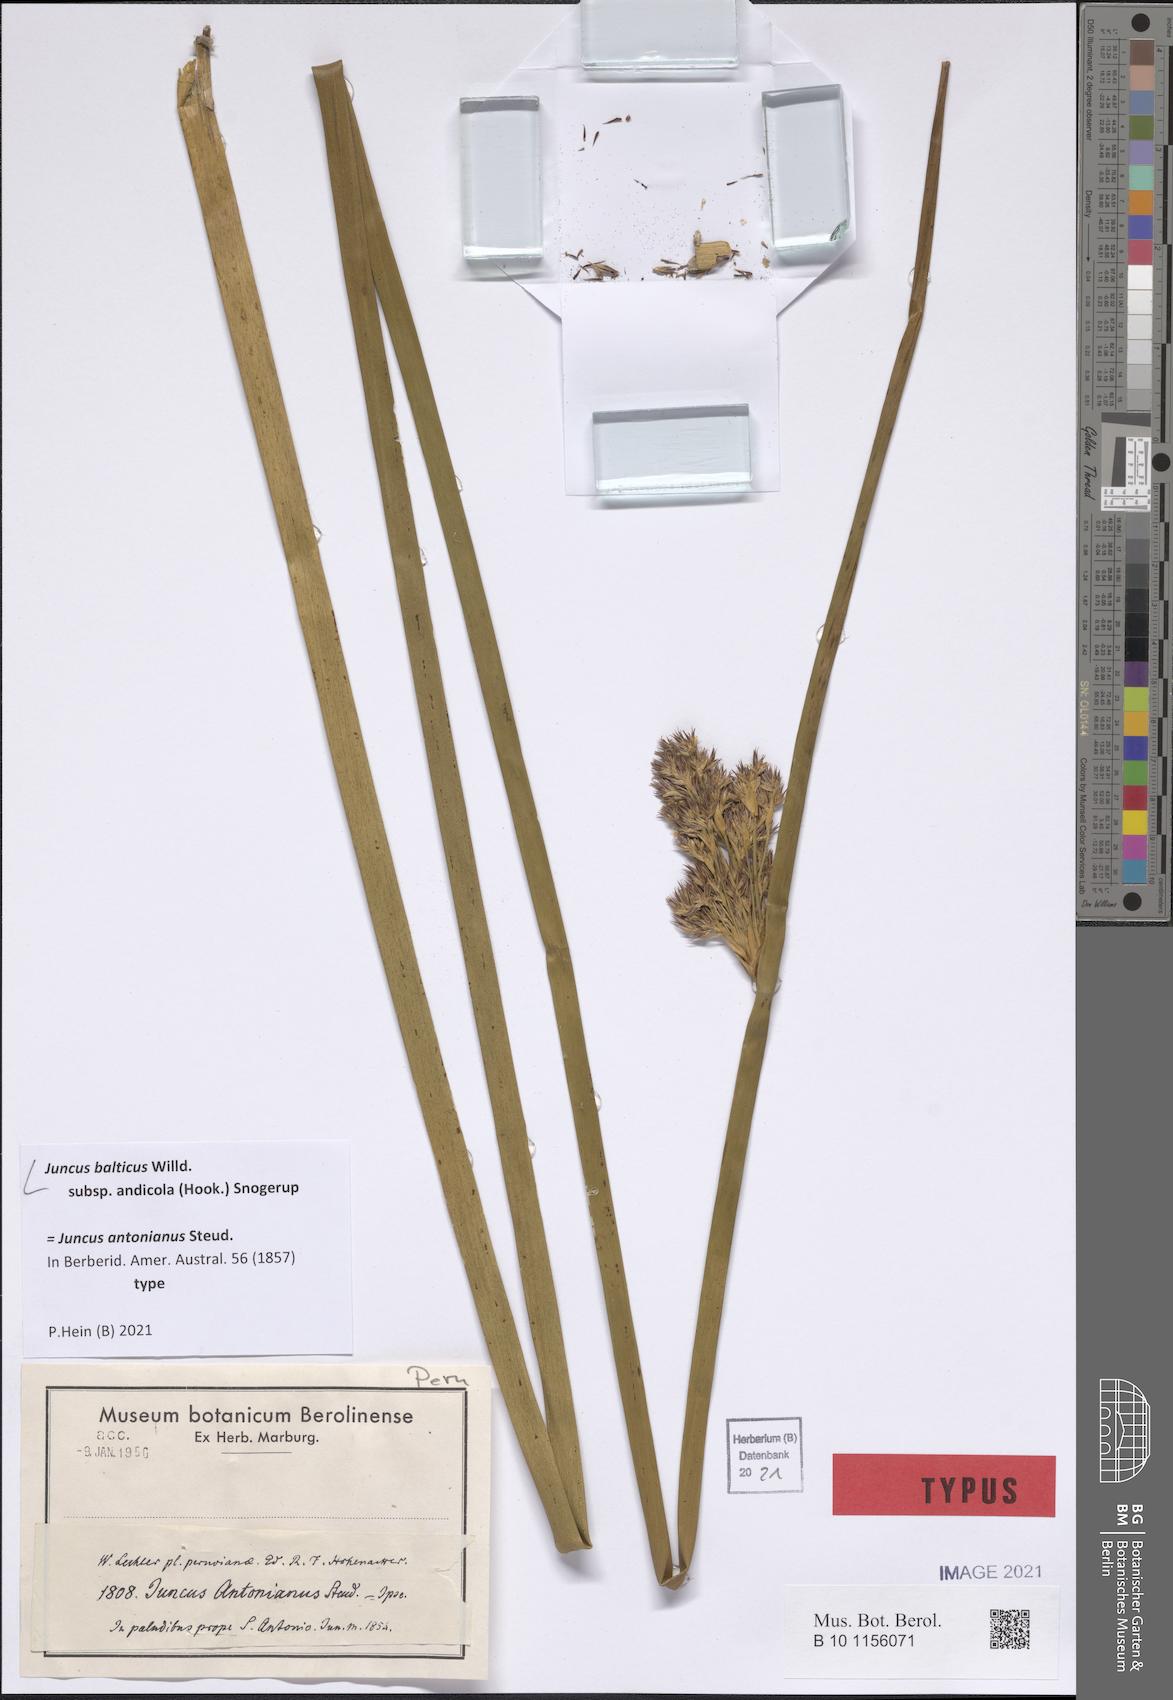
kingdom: Plantae
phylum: Tracheophyta
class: Liliopsida
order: Poales
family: Juncaceae
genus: Juncus
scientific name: Juncus balticus
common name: Baltic rush
